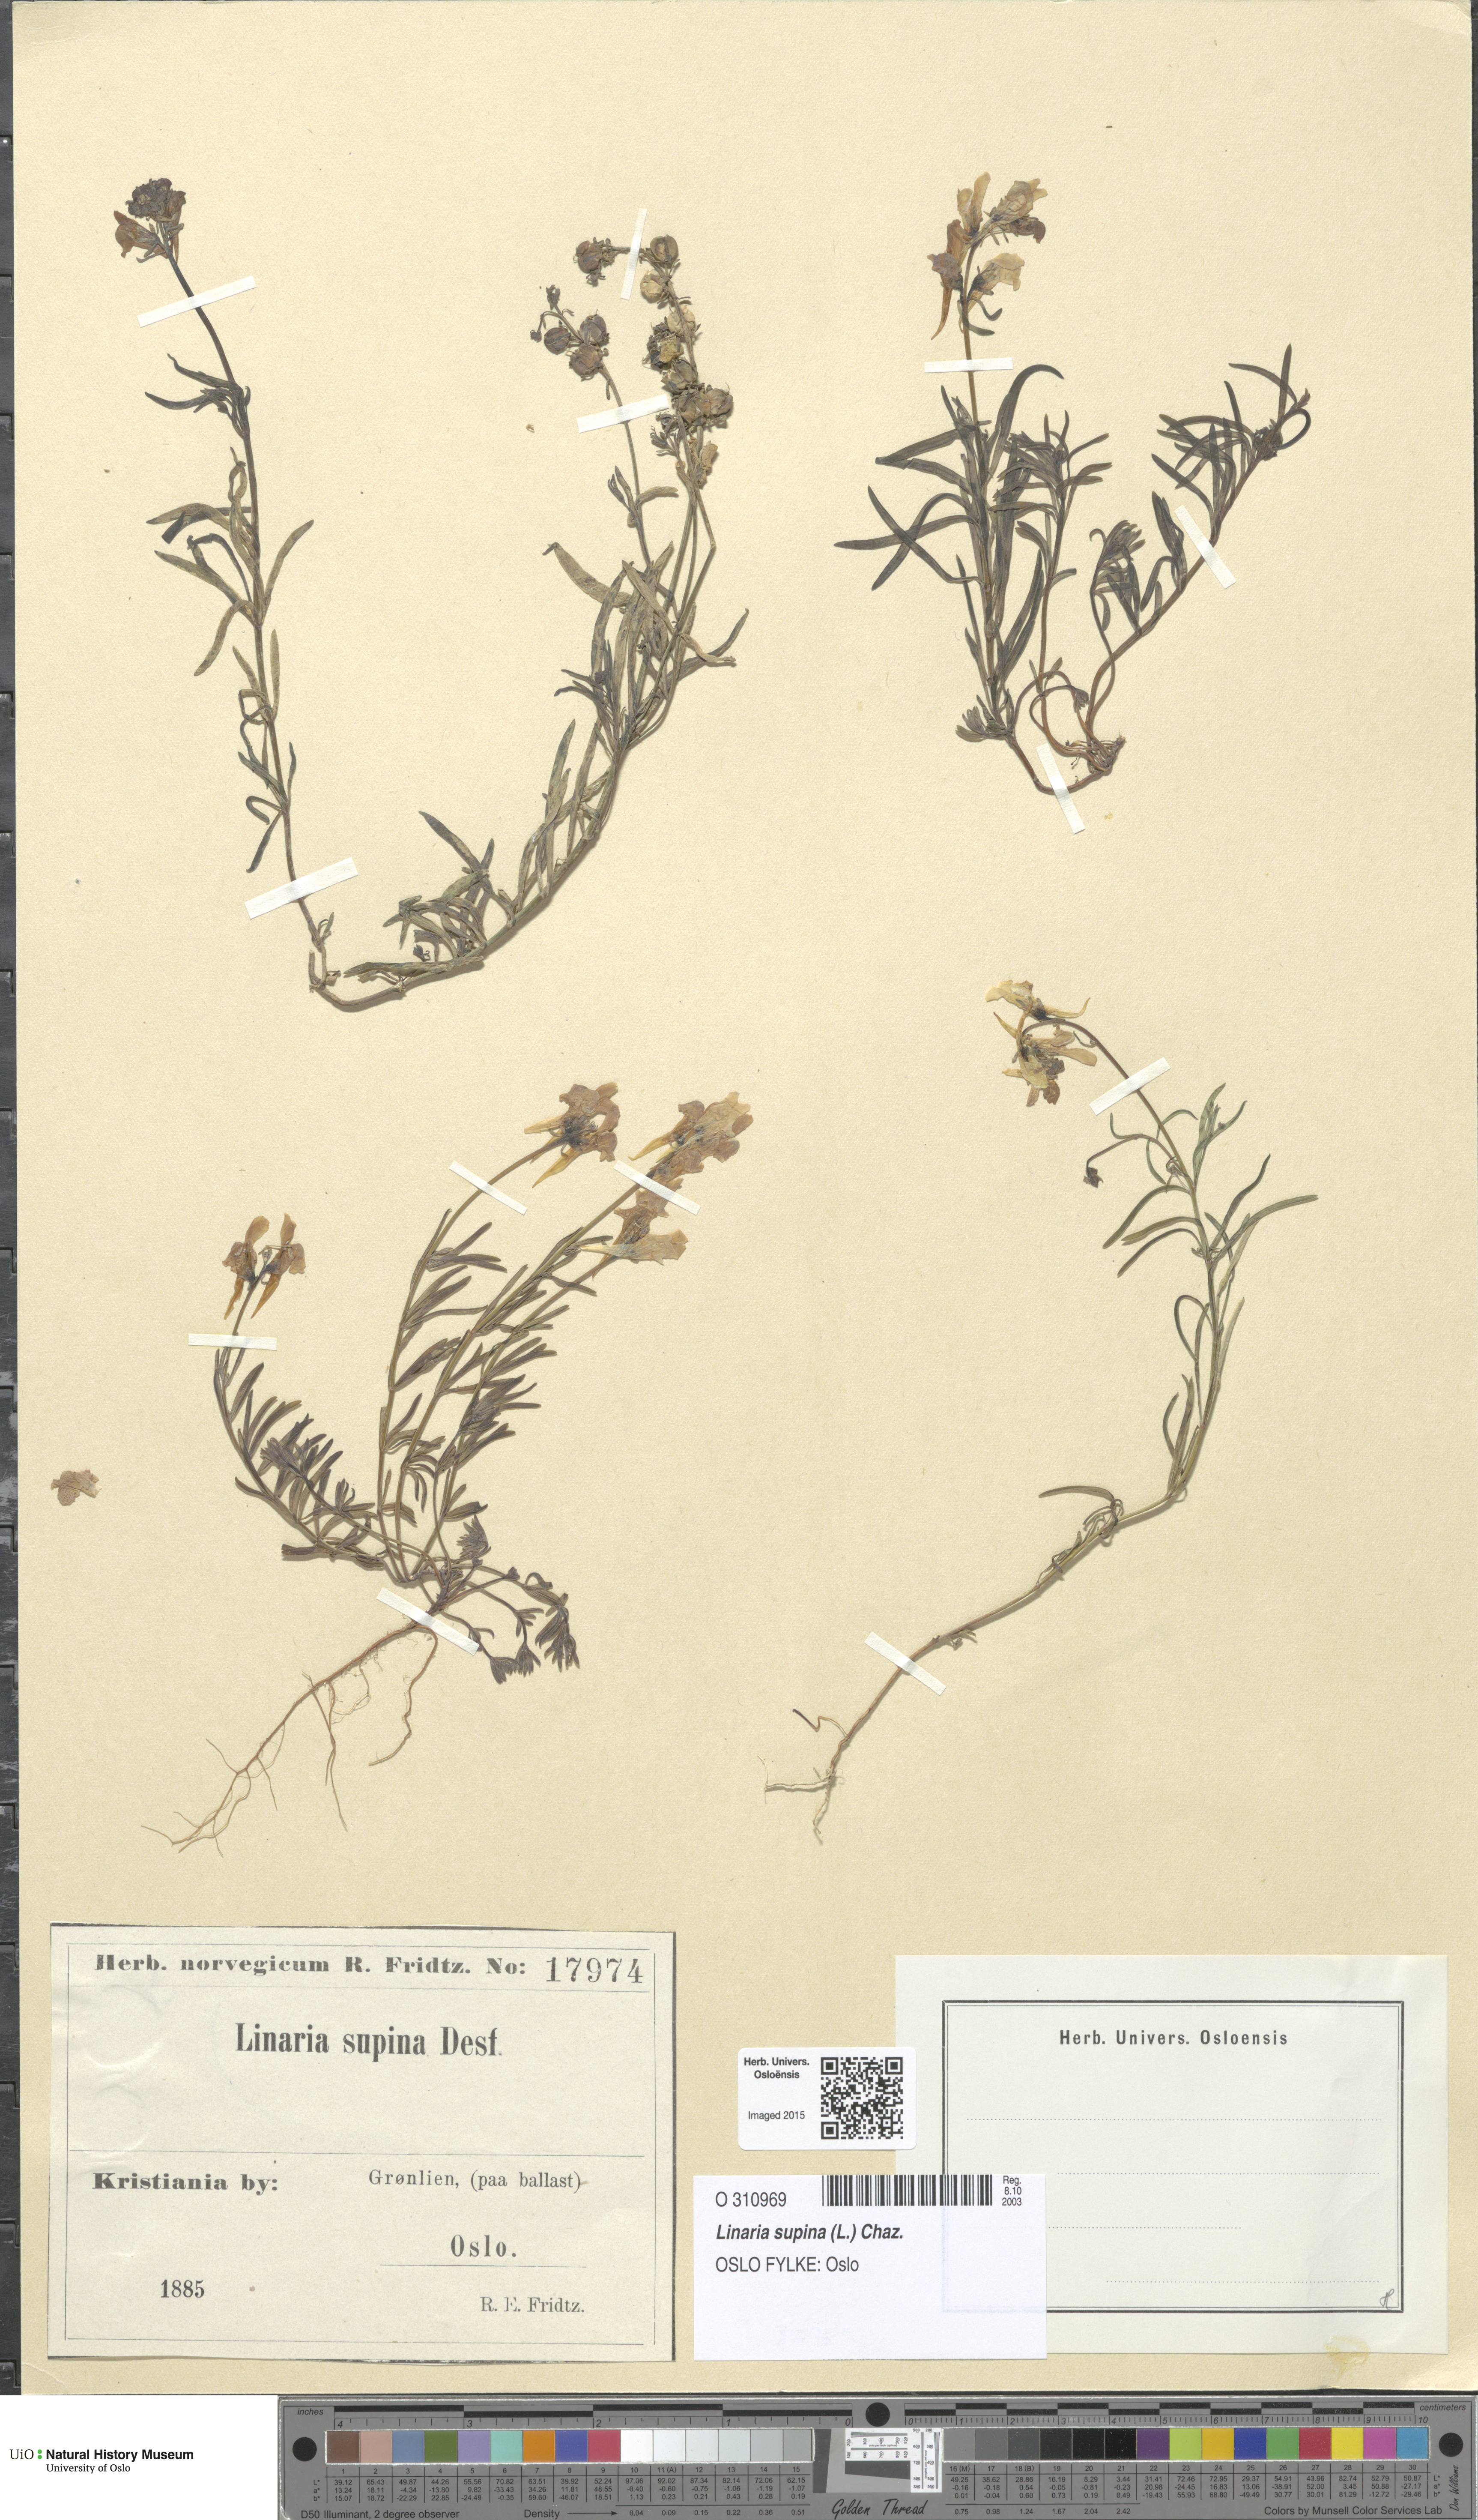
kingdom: Plantae
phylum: Tracheophyta
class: Magnoliopsida
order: Lamiales
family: Plantaginaceae
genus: Linaria
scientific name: Linaria supina
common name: Prostrate toadflax
